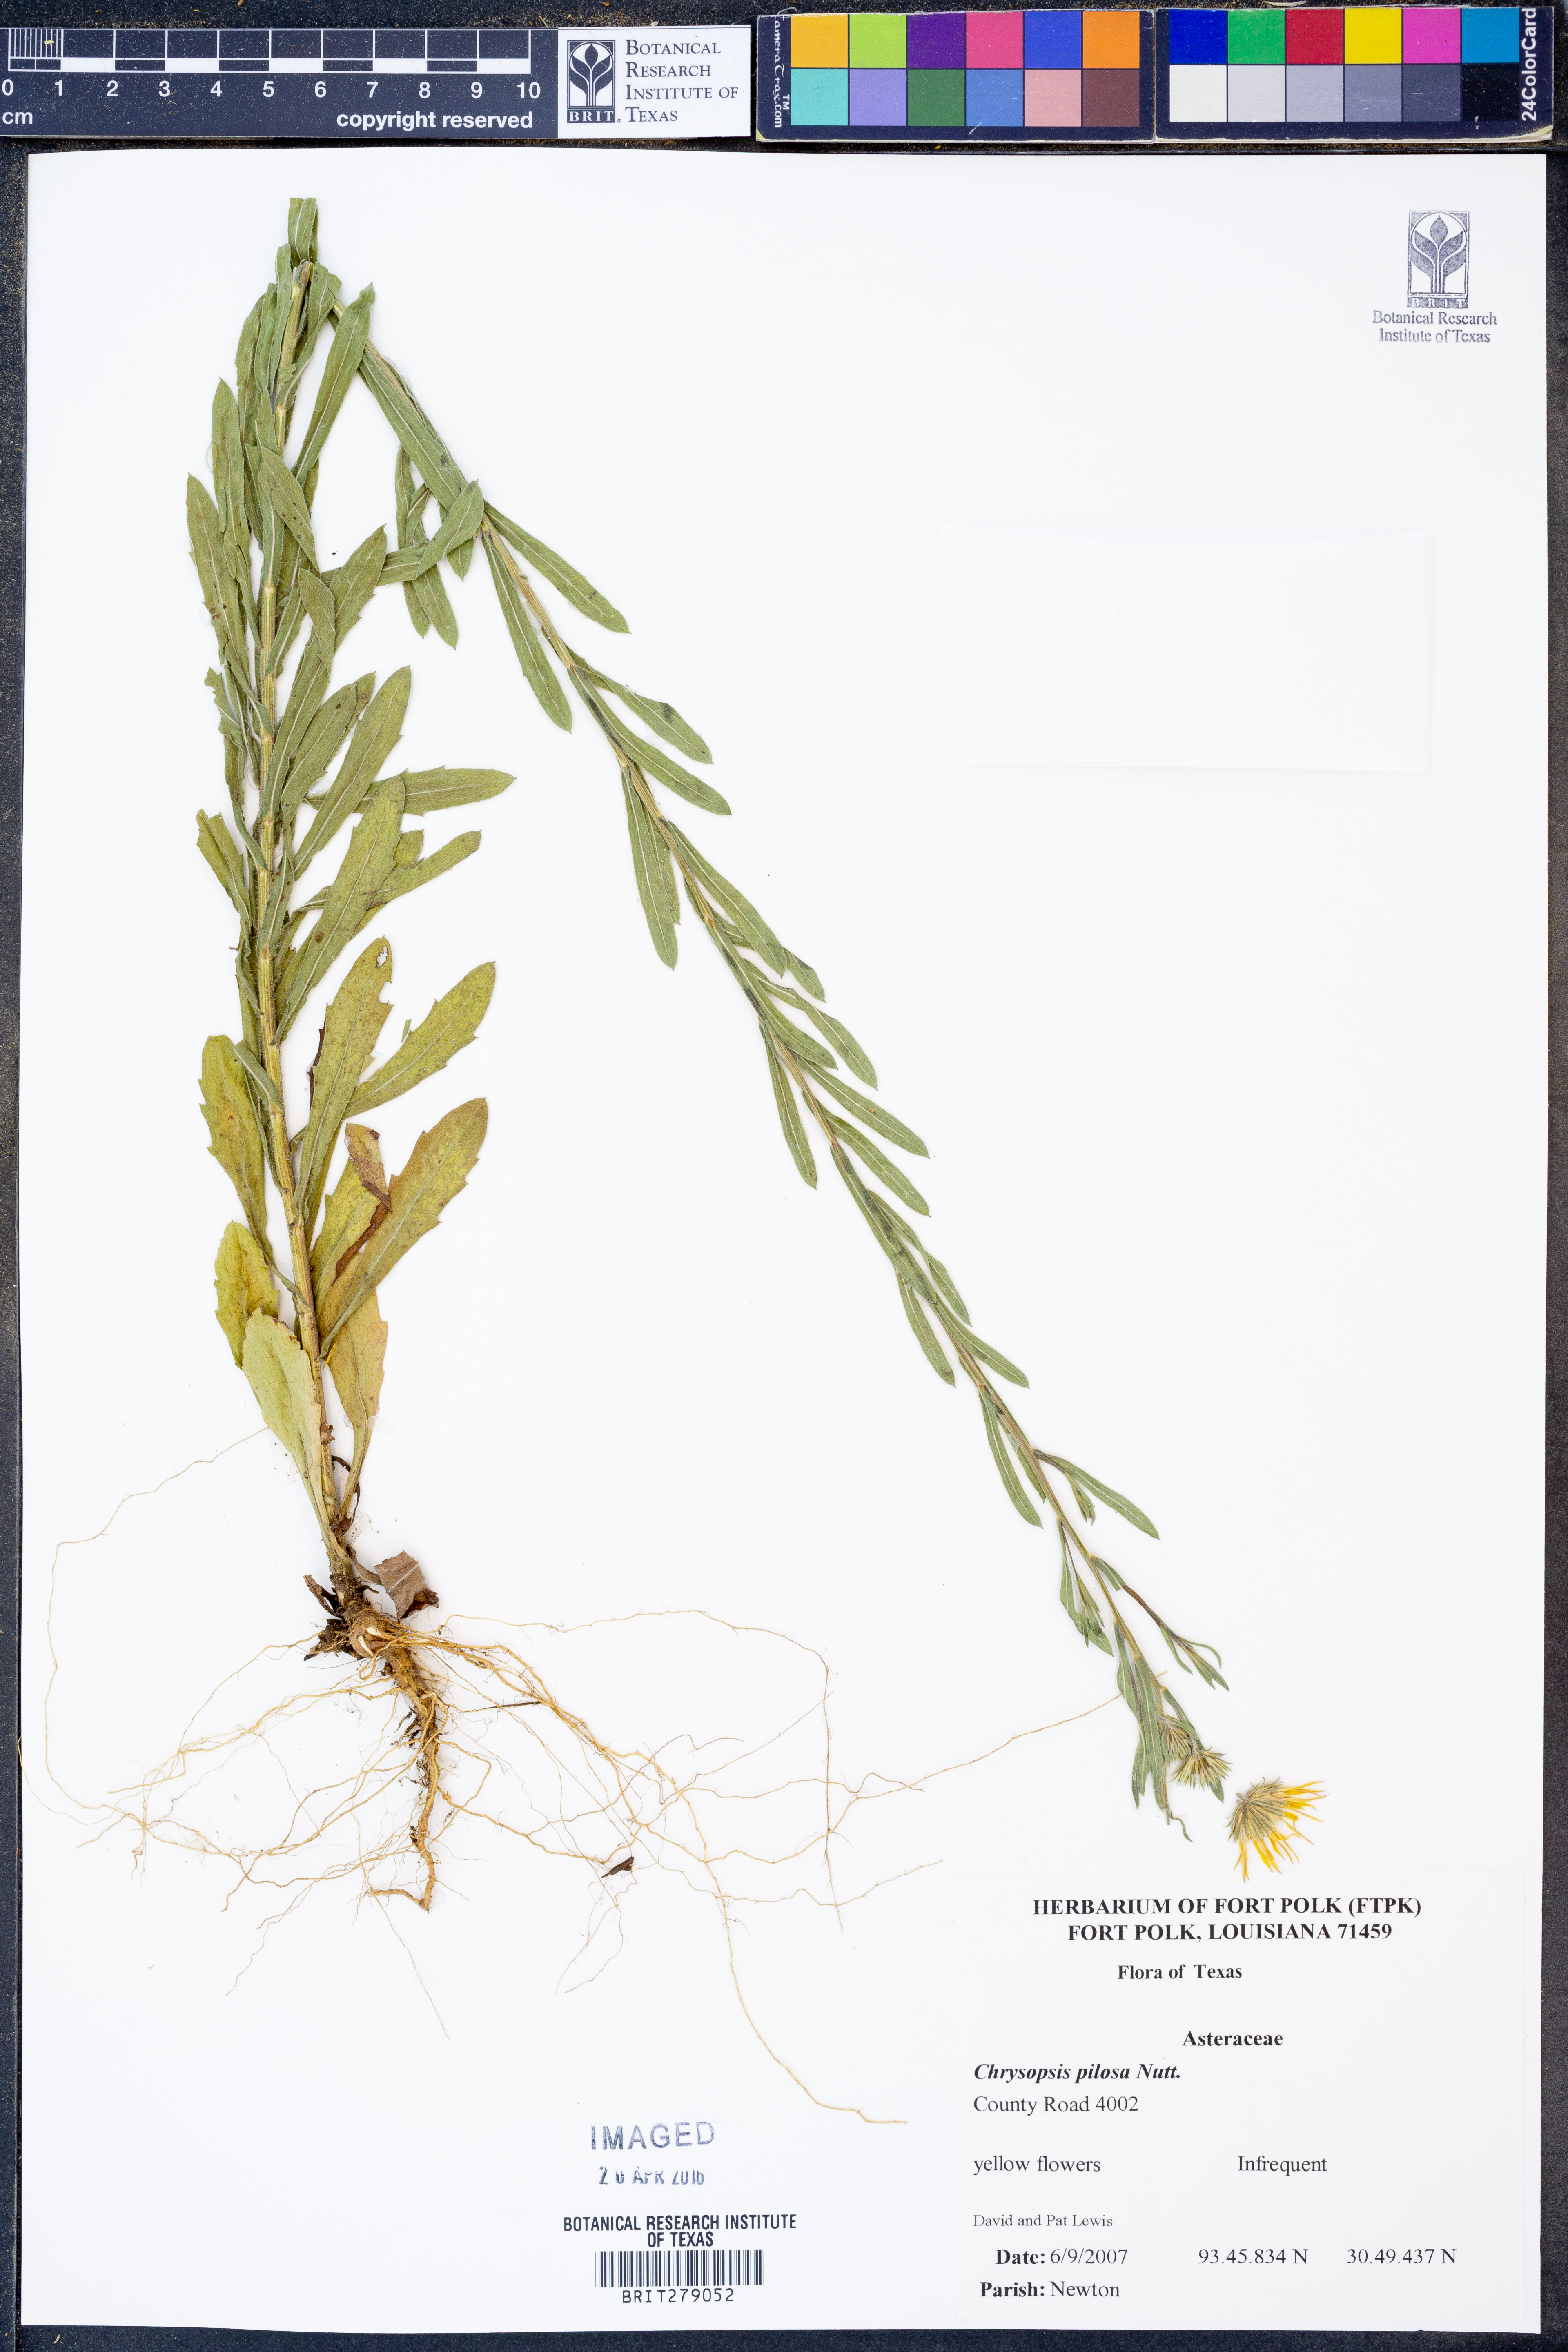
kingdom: Plantae
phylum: Tracheophyta
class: Magnoliopsida
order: Asterales
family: Asteraceae
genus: Bradburia
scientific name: Bradburia pilosa
